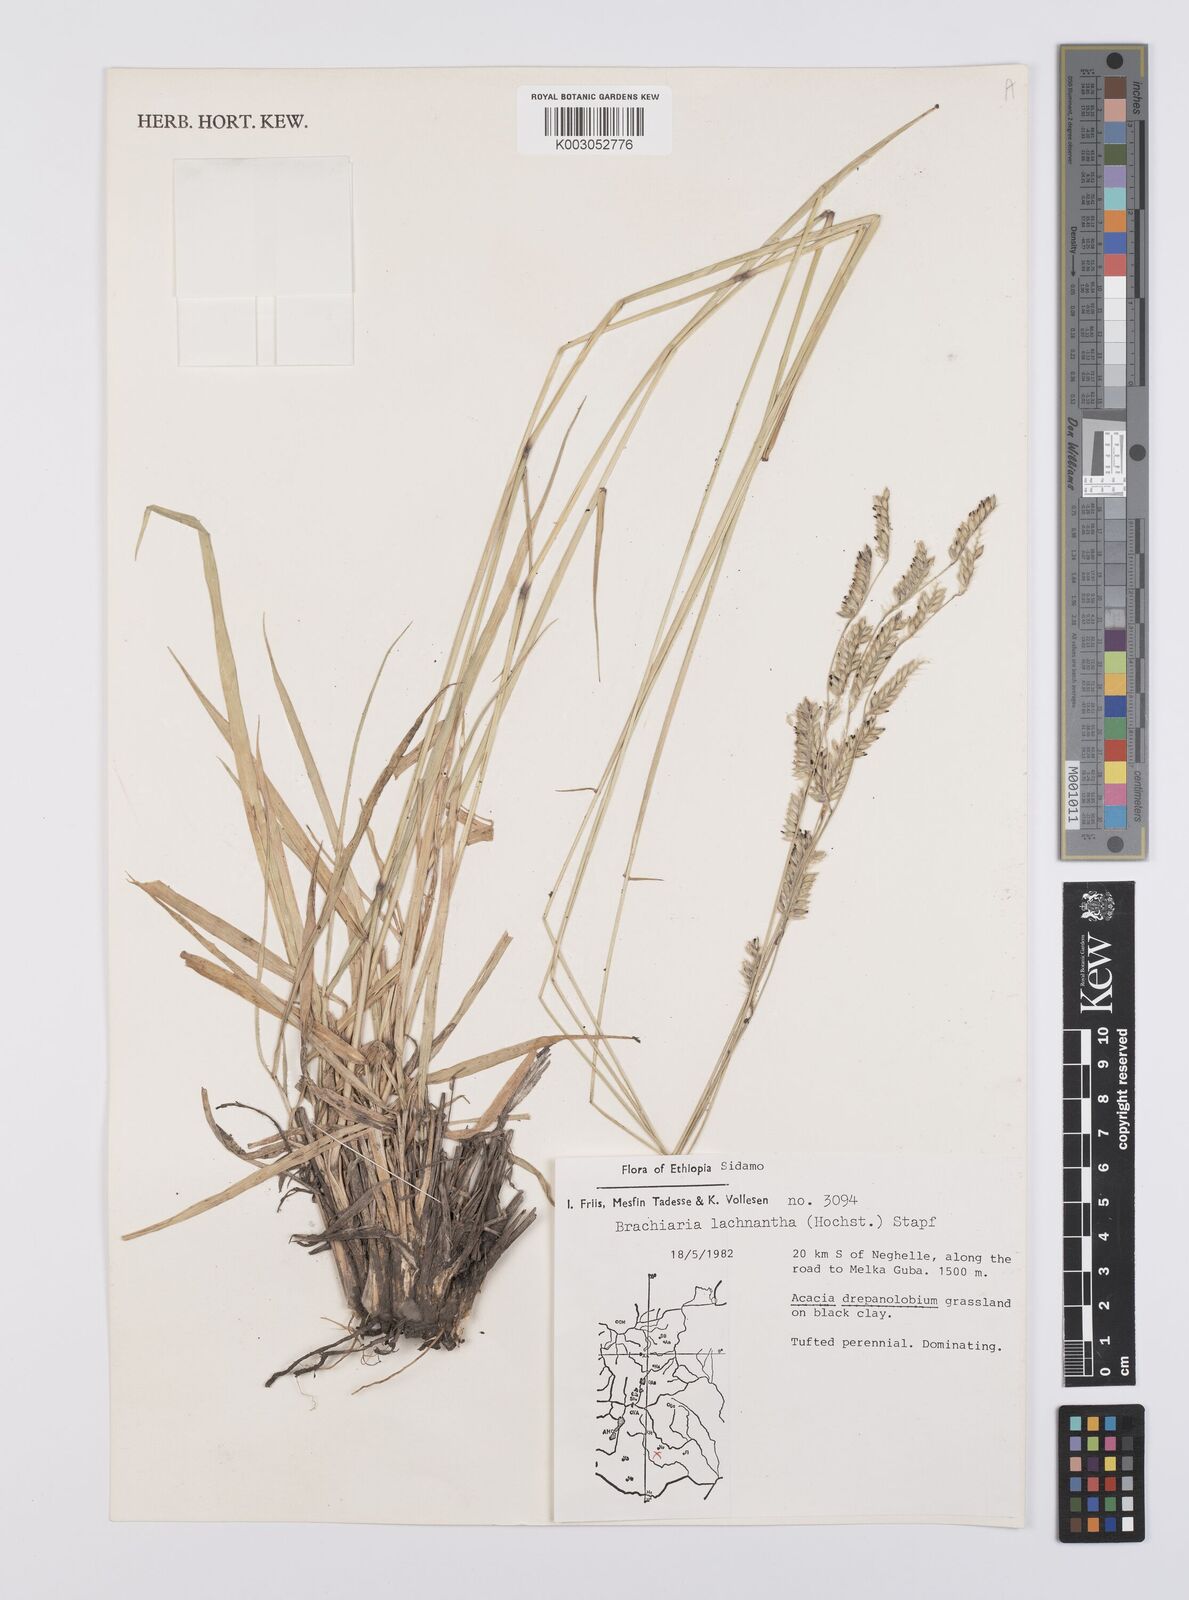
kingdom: Plantae
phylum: Tracheophyta
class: Liliopsida
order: Poales
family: Poaceae
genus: Urochloa
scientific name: Urochloa lachnantha
